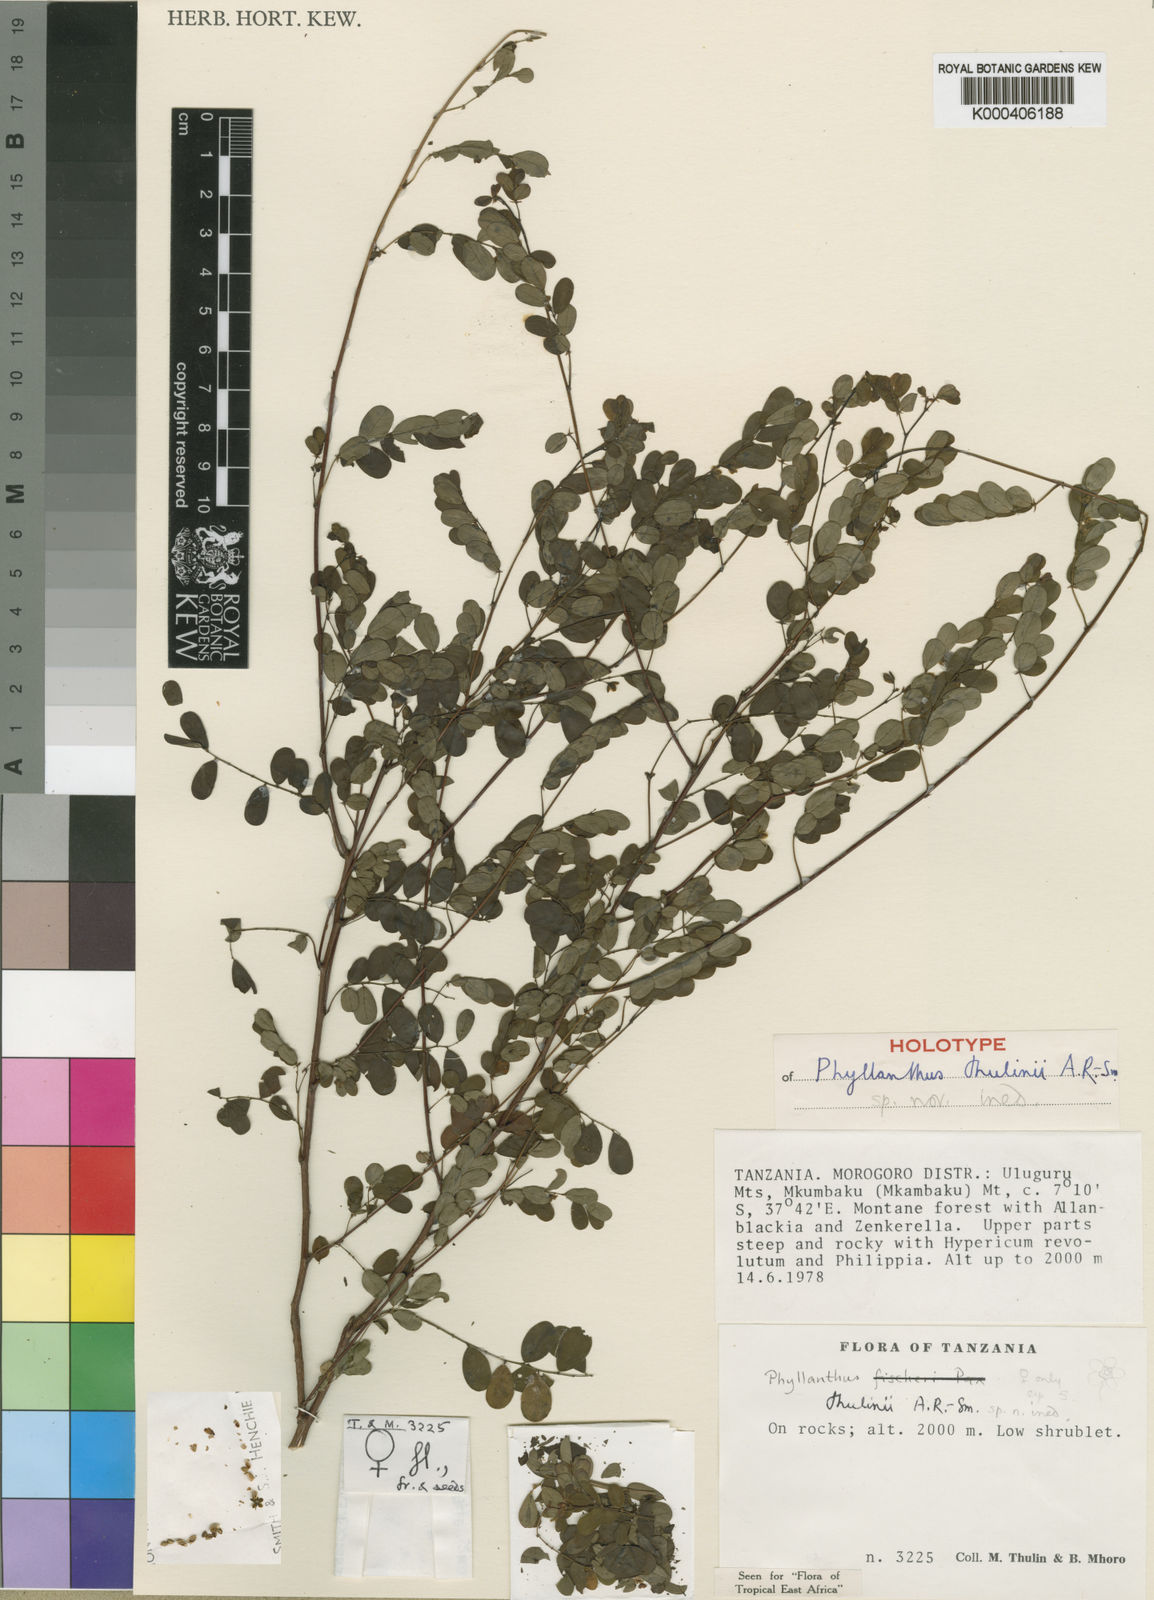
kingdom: Plantae
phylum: Tracheophyta
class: Magnoliopsida
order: Malpighiales
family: Phyllanthaceae
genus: Phyllanthus
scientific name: Phyllanthus thulinii
